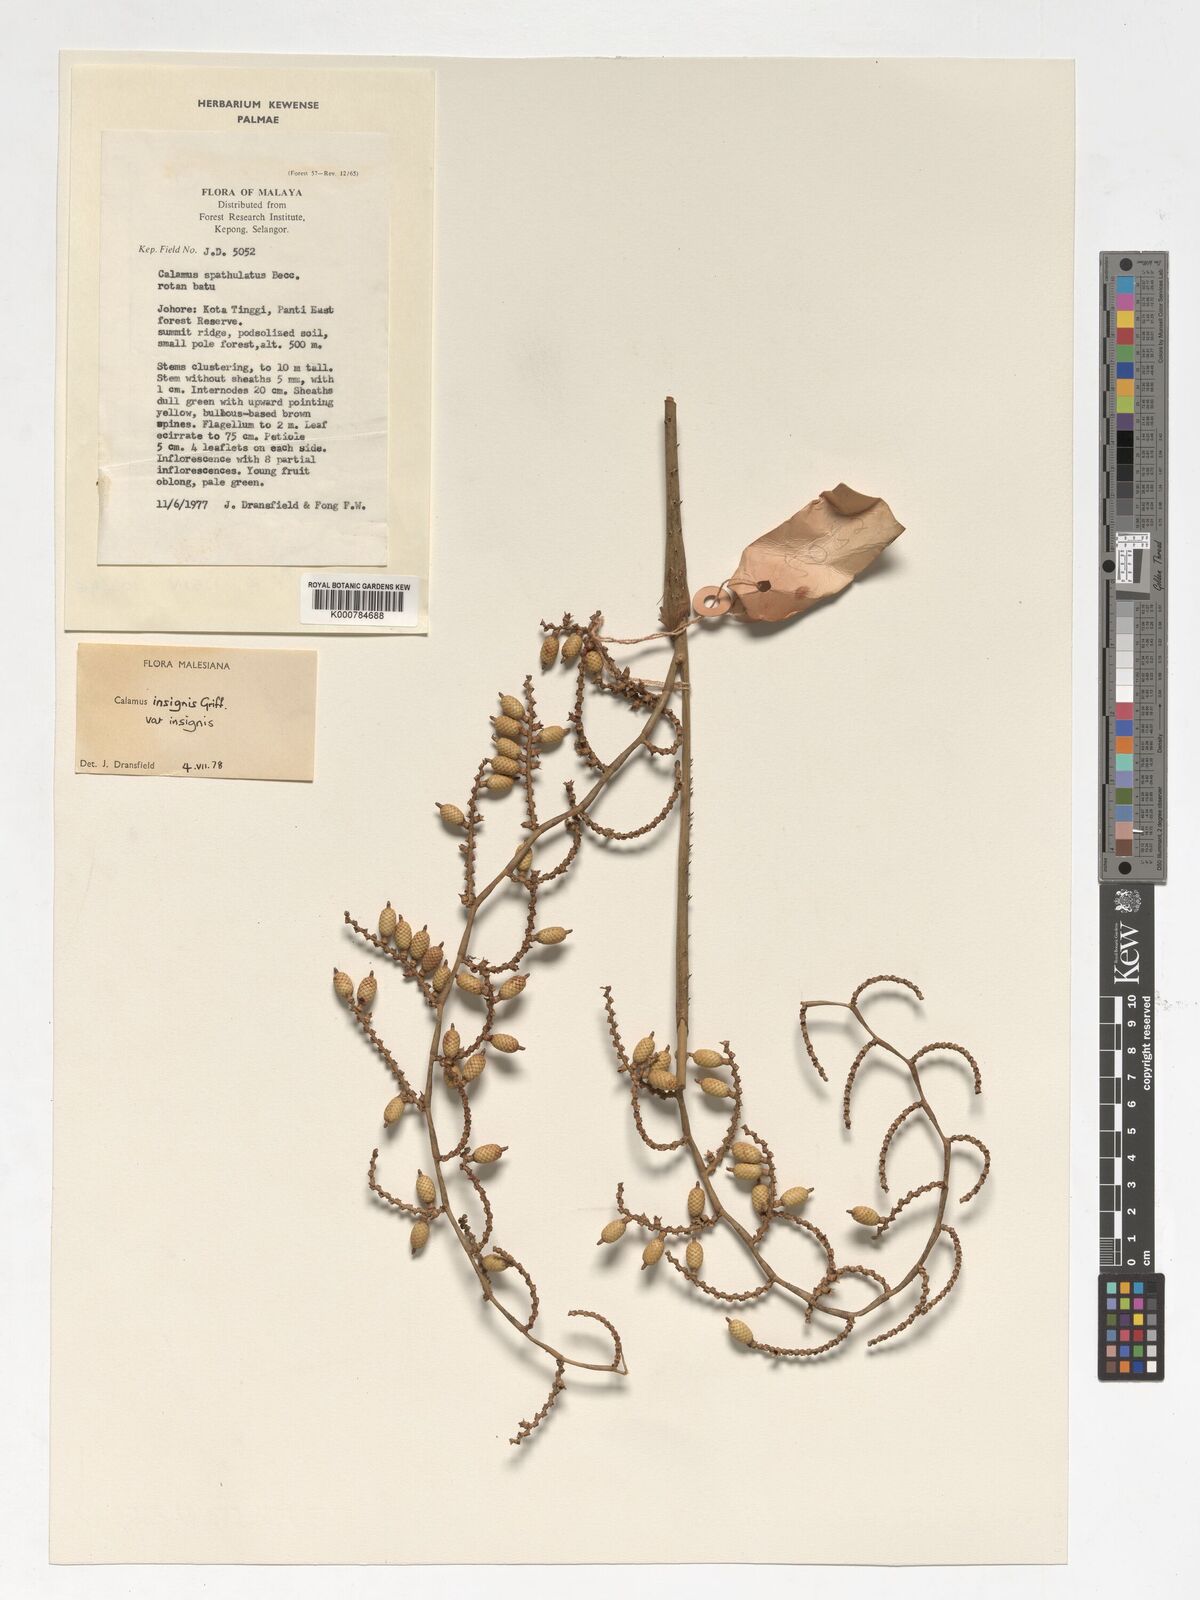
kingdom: Plantae
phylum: Tracheophyta
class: Liliopsida
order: Arecales
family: Arecaceae
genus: Calamus
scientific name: Calamus insignis
